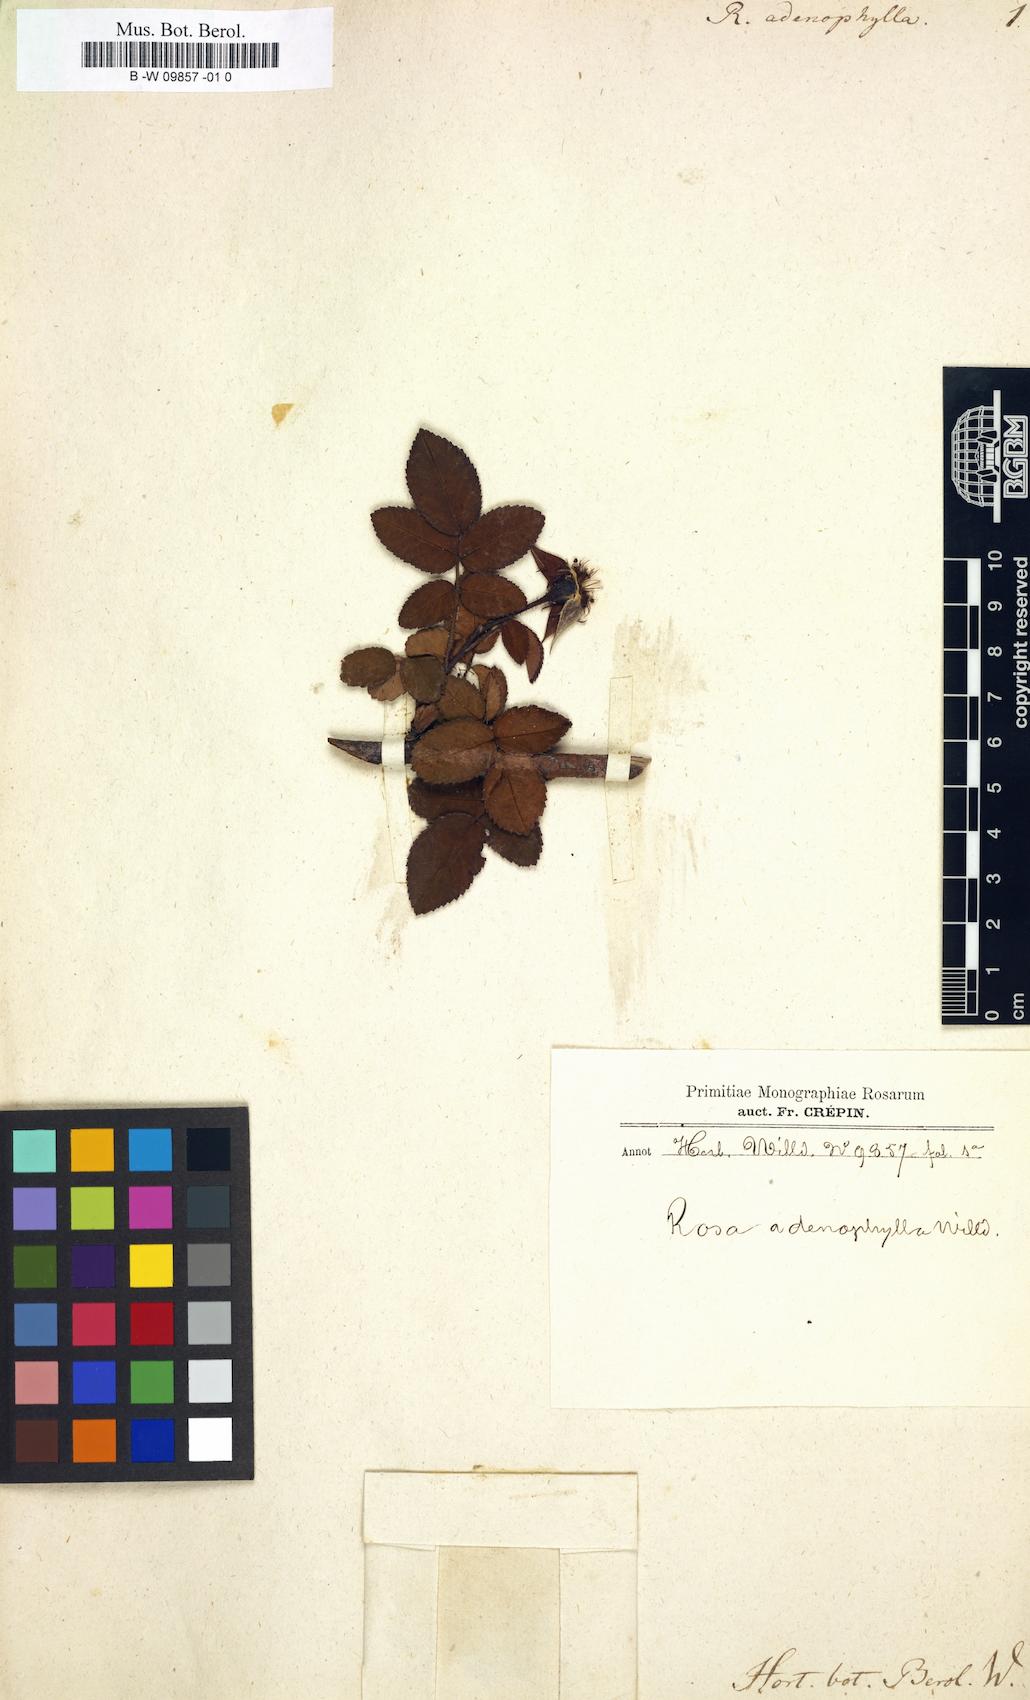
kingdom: Plantae
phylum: Tracheophyta
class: Magnoliopsida
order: Rosales
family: Rosaceae
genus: Rosa
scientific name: Rosa adenophylla
